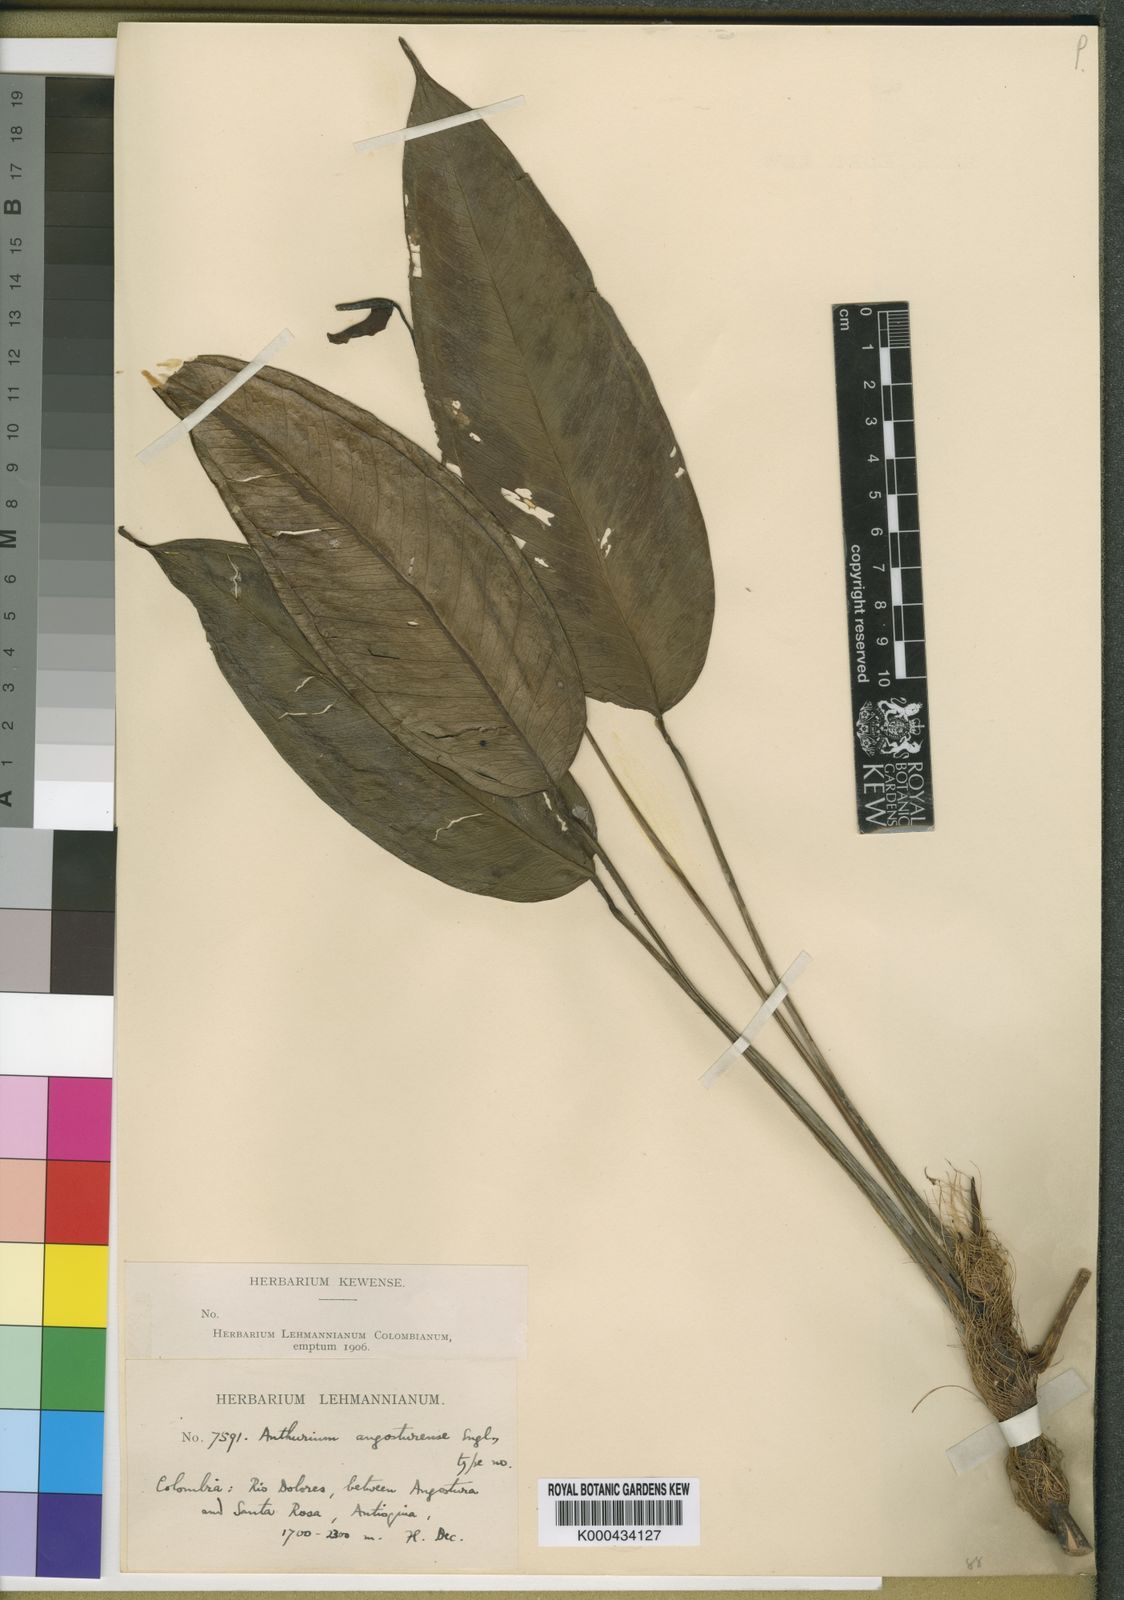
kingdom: Plantae
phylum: Tracheophyta
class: Liliopsida
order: Alismatales
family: Araceae
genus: Anthurium
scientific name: Anthurium angosturense
